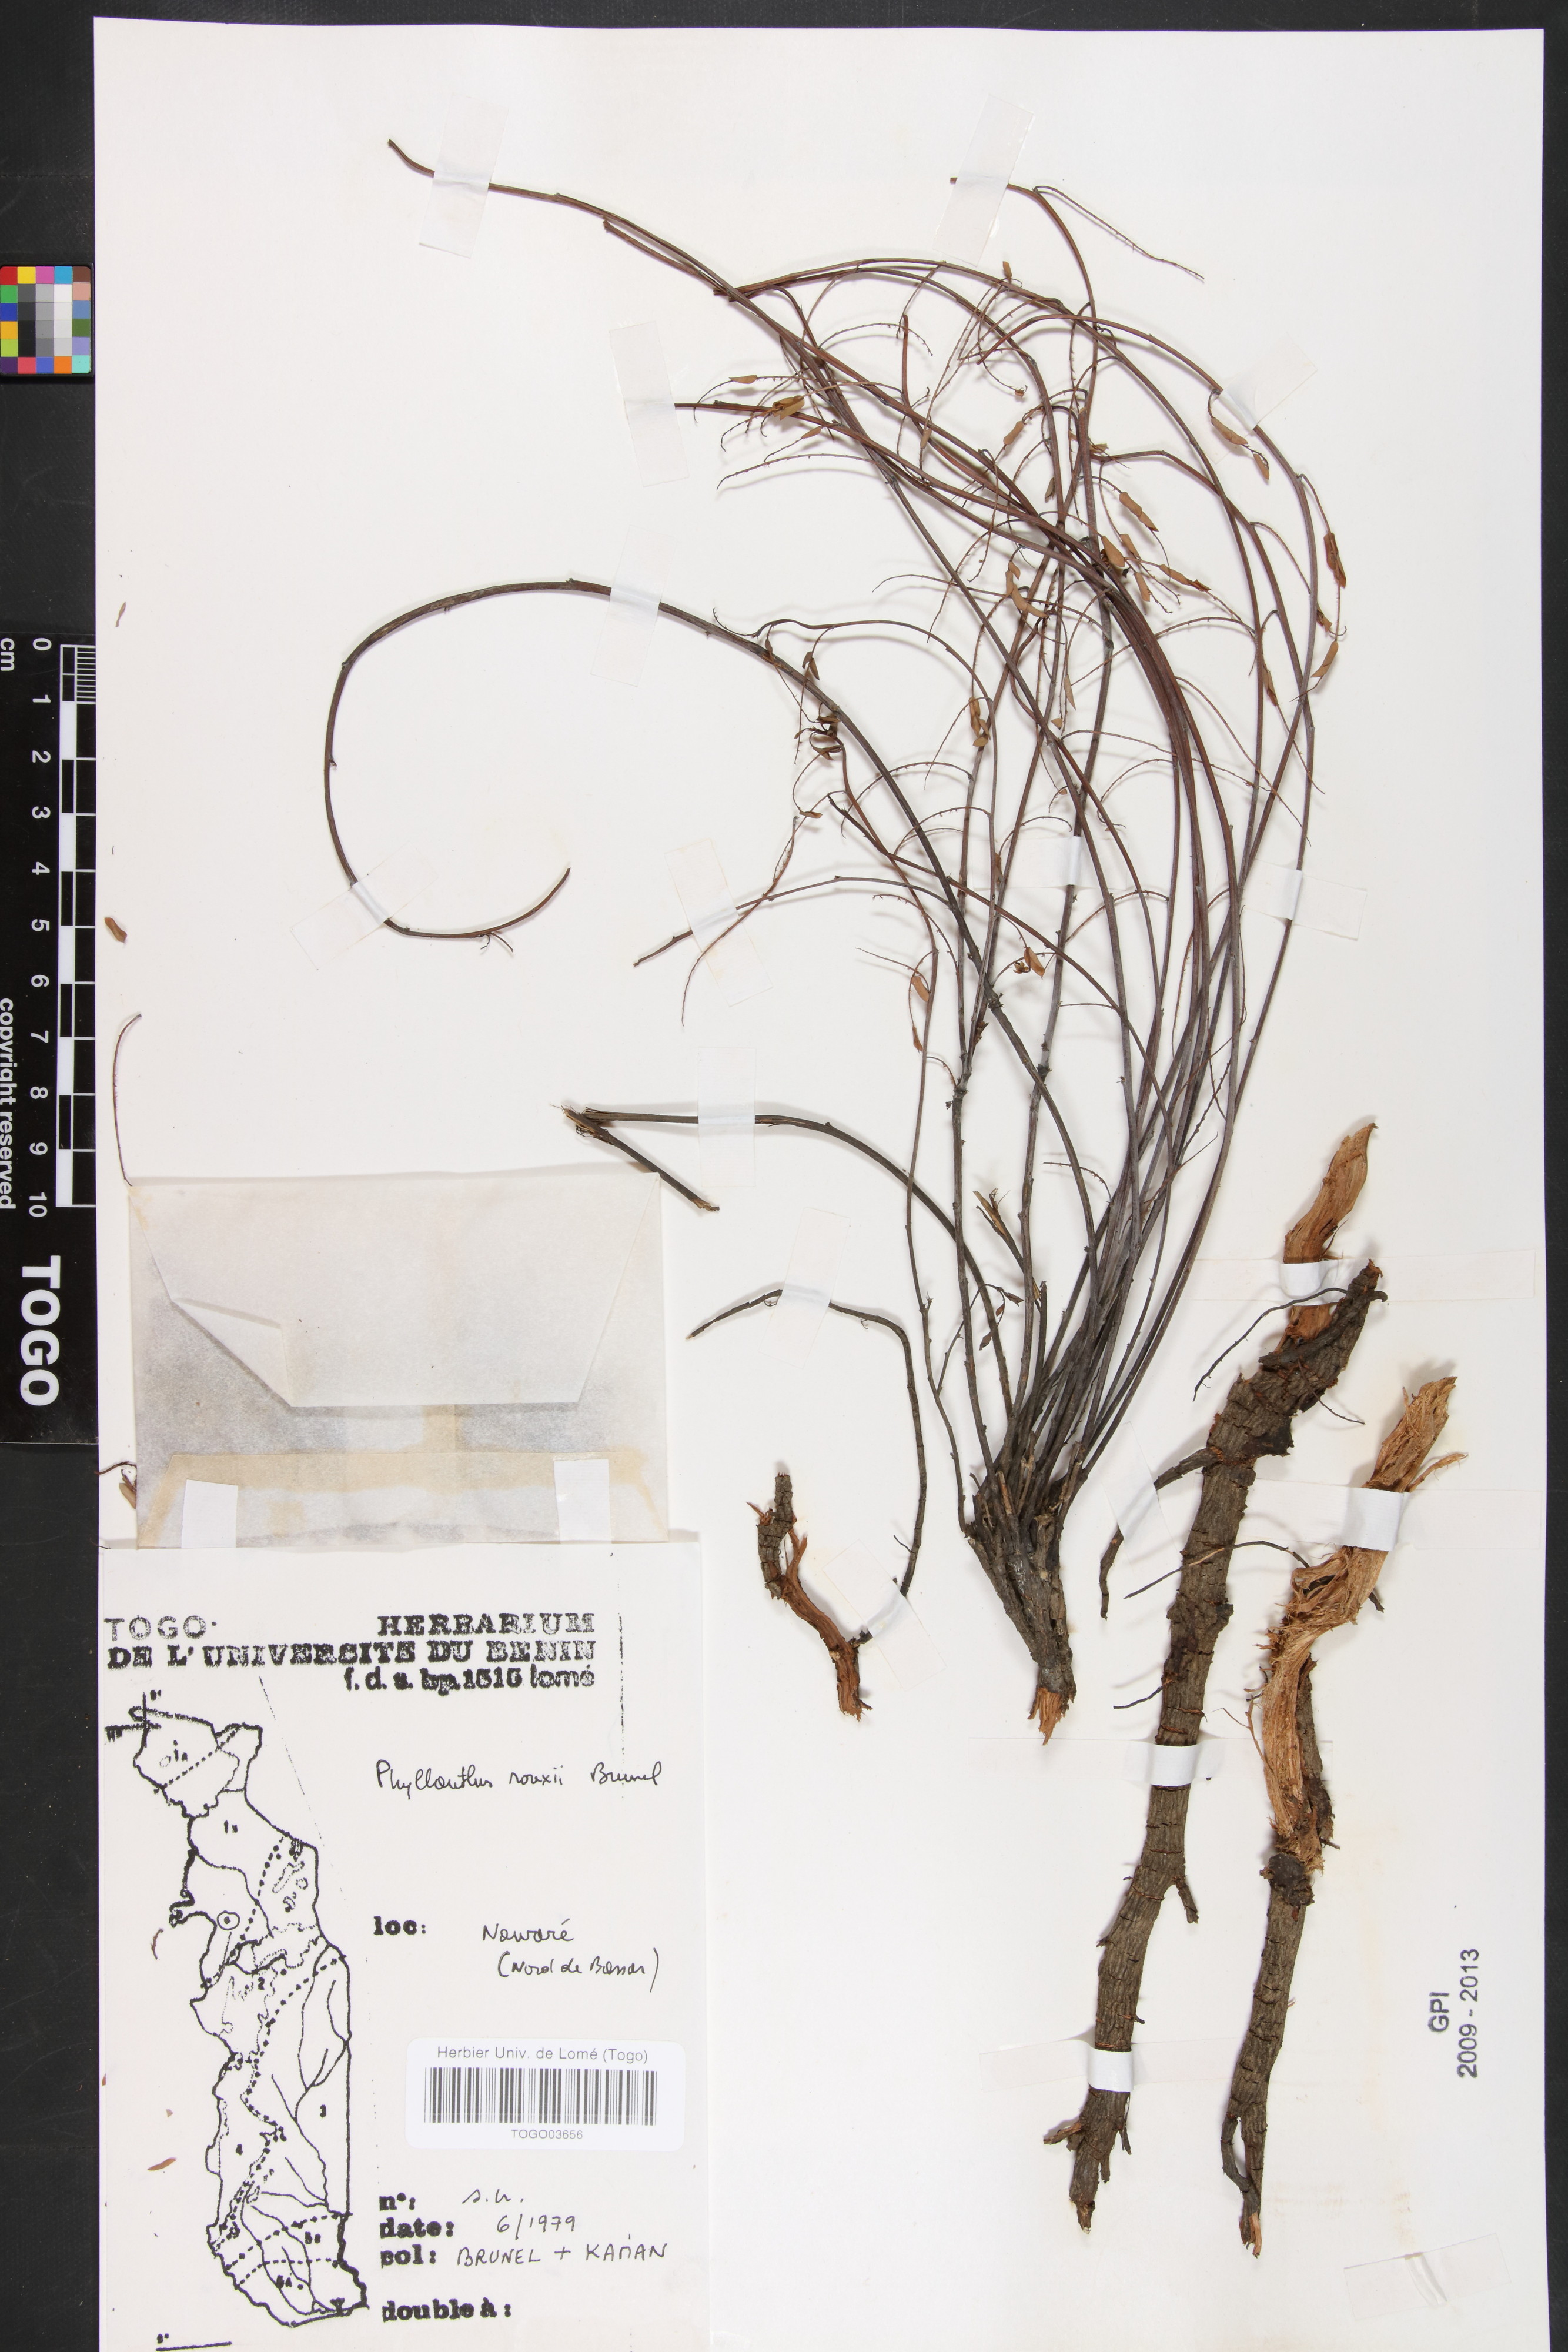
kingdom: Plantae
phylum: Tracheophyta
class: Magnoliopsida
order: Malpighiales
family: Phyllanthaceae
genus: Phyllanthus
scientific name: Phyllanthus rouxii
